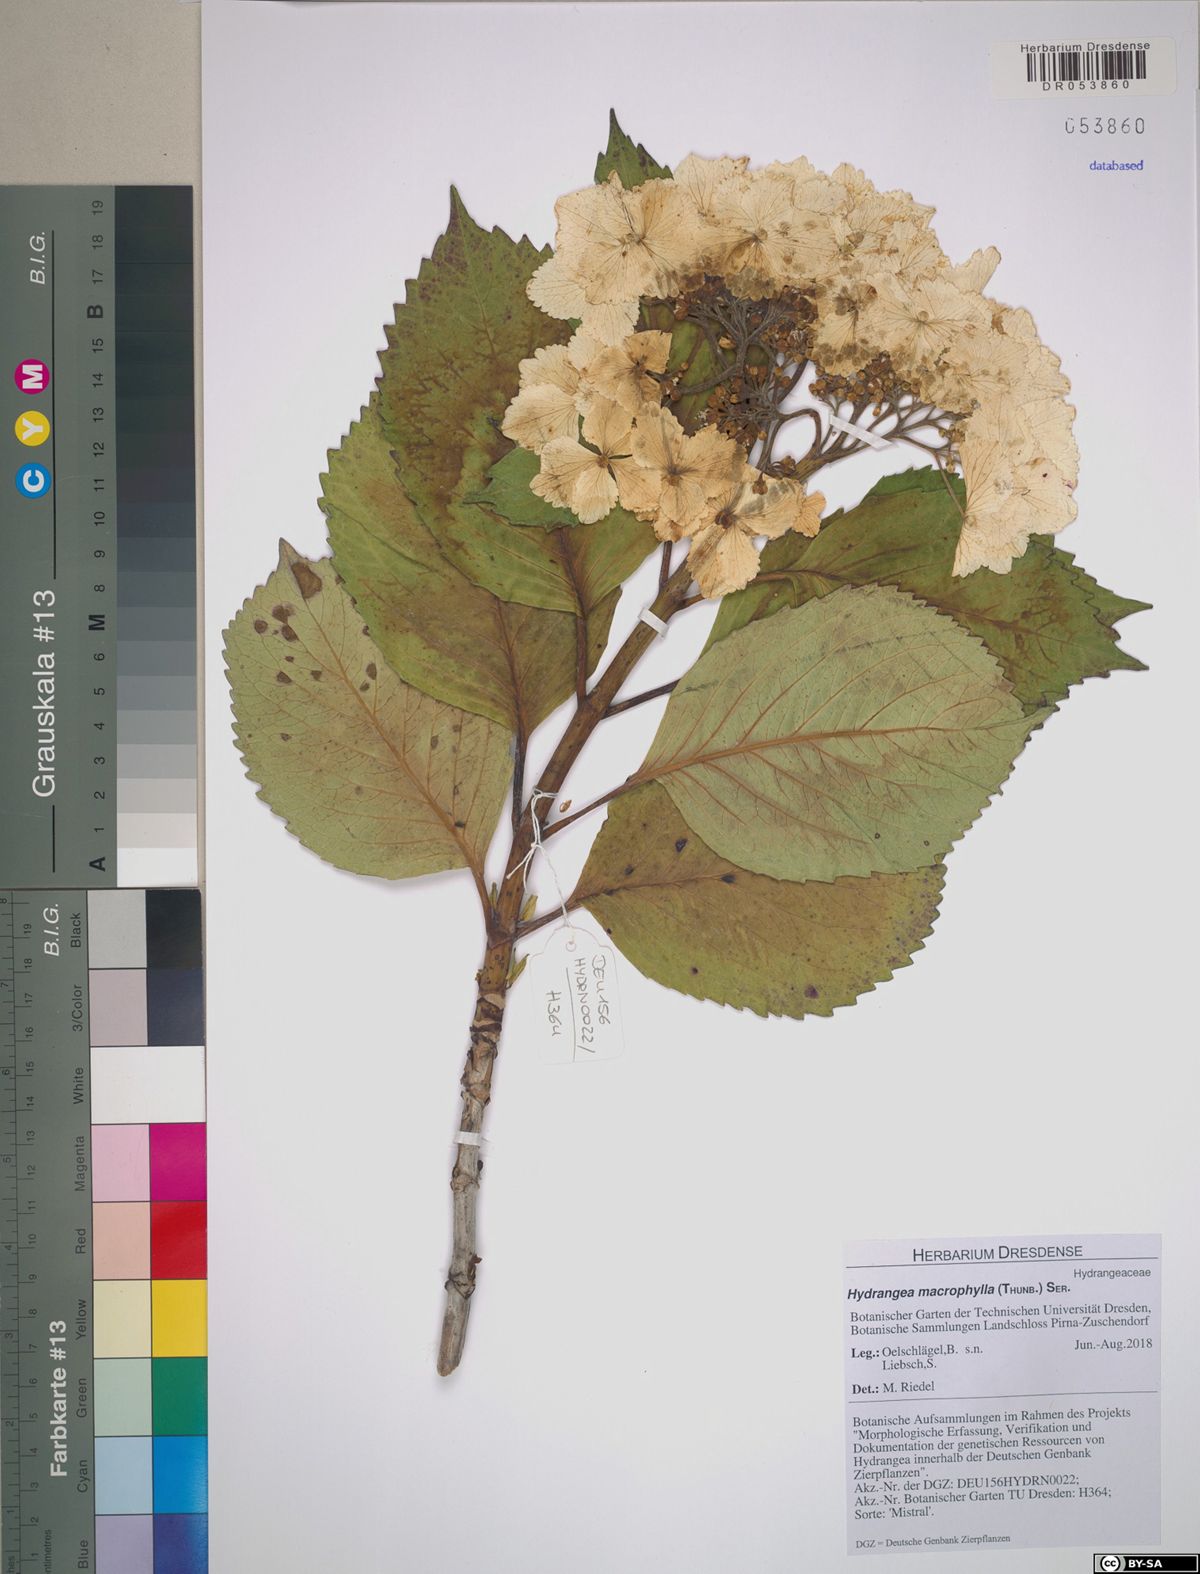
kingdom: Plantae
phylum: Tracheophyta
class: Magnoliopsida
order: Cornales
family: Hydrangeaceae
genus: Hydrangea
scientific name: Hydrangea macrophylla
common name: Hydrangea
